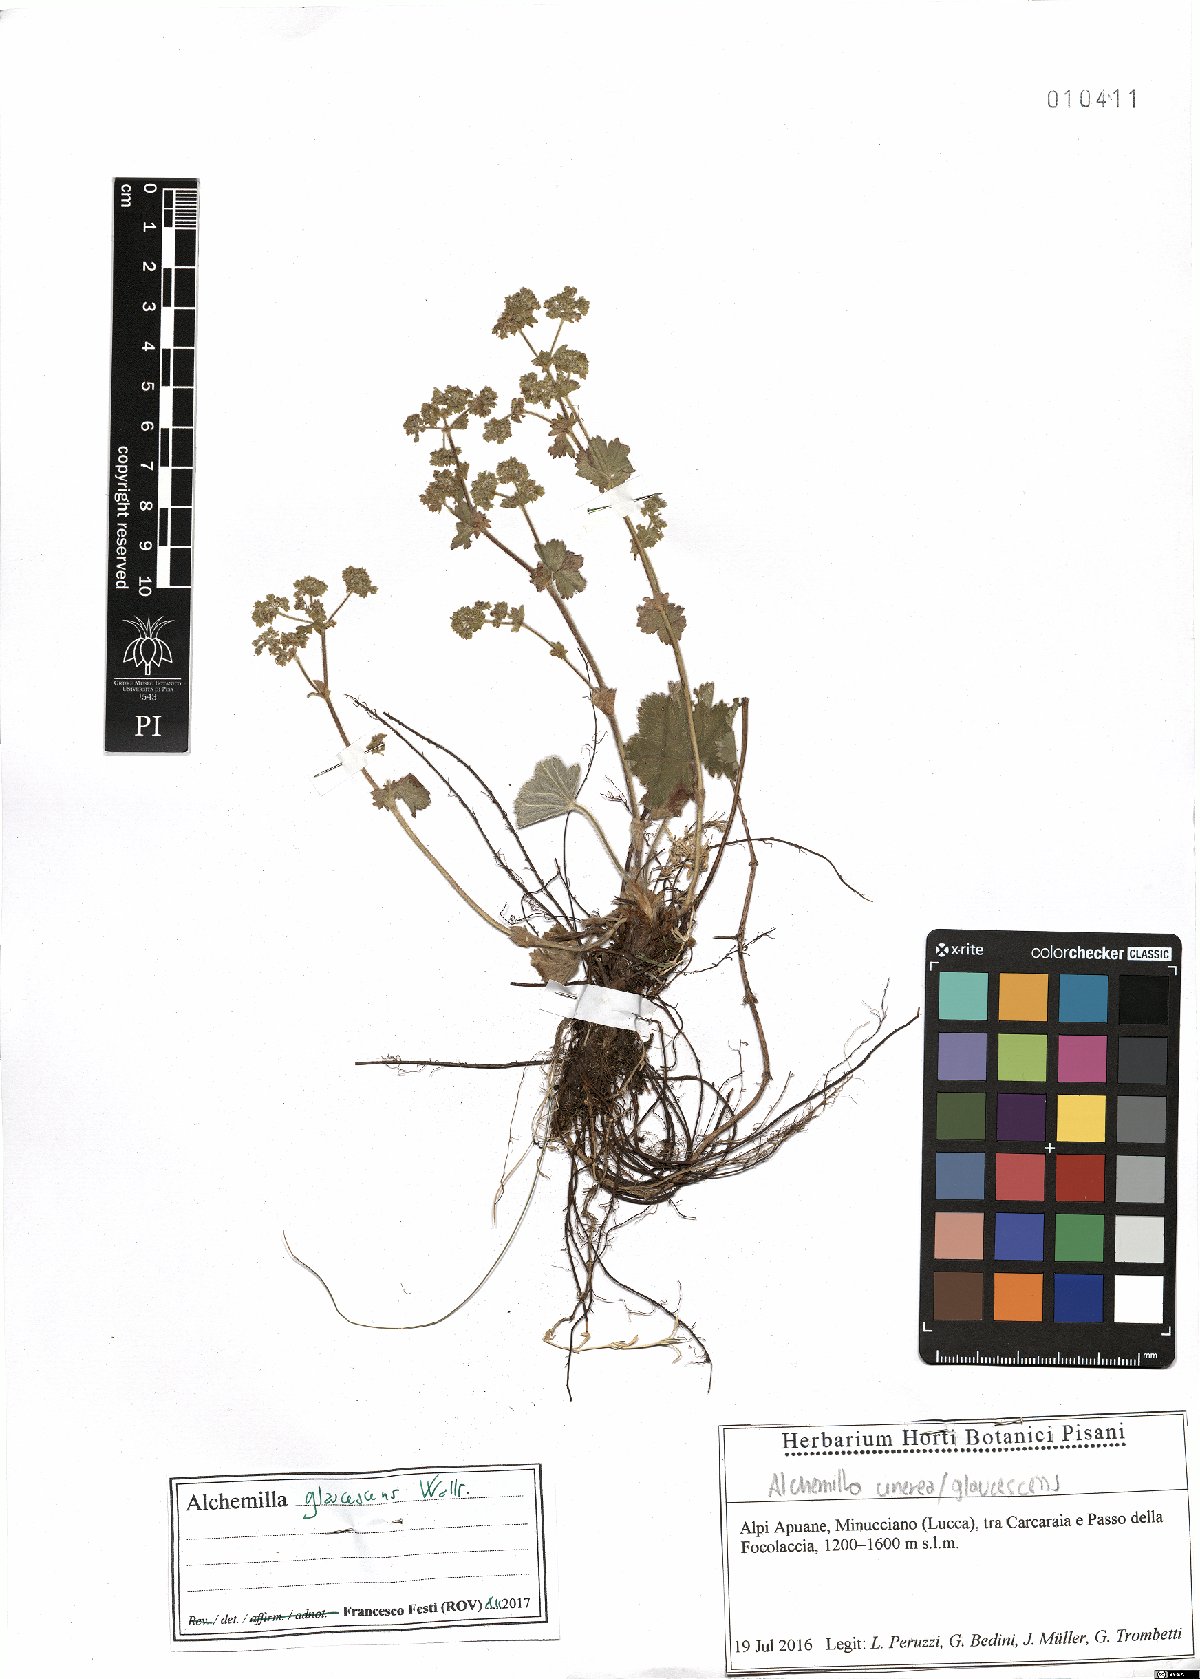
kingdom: Plantae
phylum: Tracheophyta
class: Magnoliopsida
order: Rosales
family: Rosaceae
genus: Alchemilla
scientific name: Alchemilla glaucescens
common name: Silky lady's mantle
